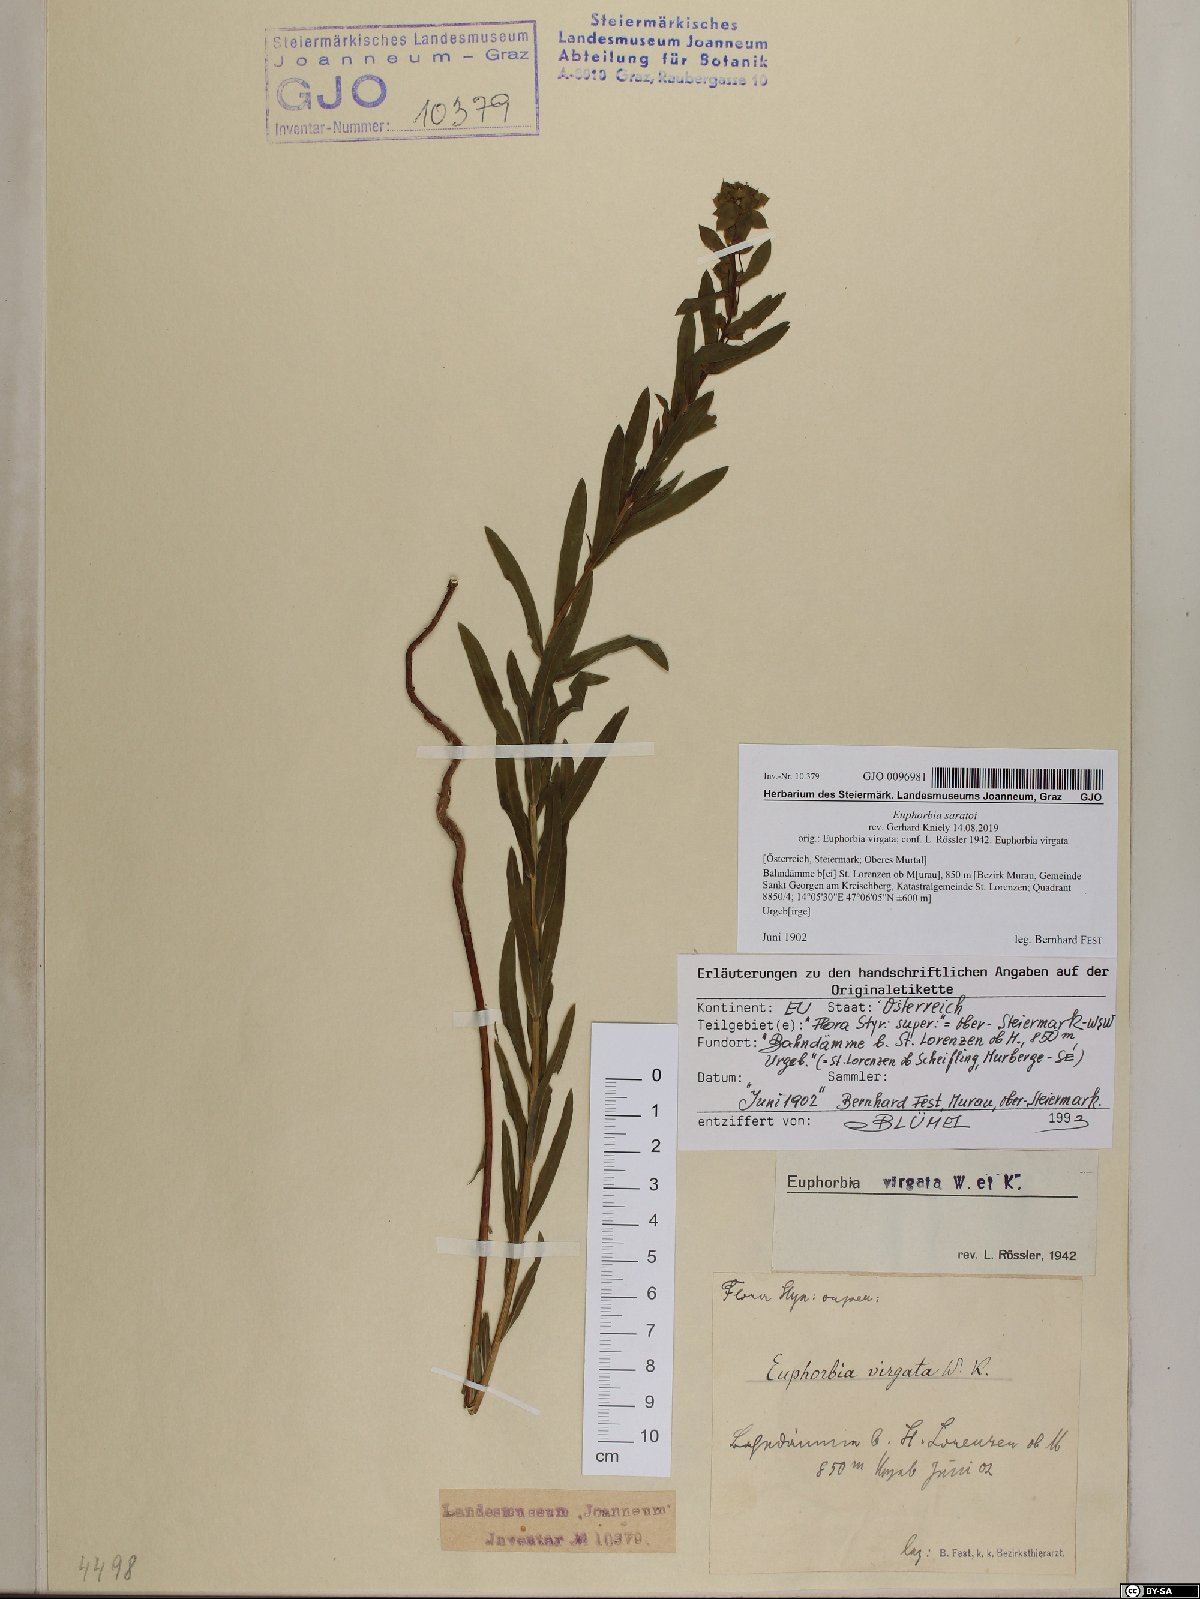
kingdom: Plantae
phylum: Tracheophyta
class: Magnoliopsida
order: Malpighiales
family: Euphorbiaceae
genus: Euphorbia
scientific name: Euphorbia saratoi
